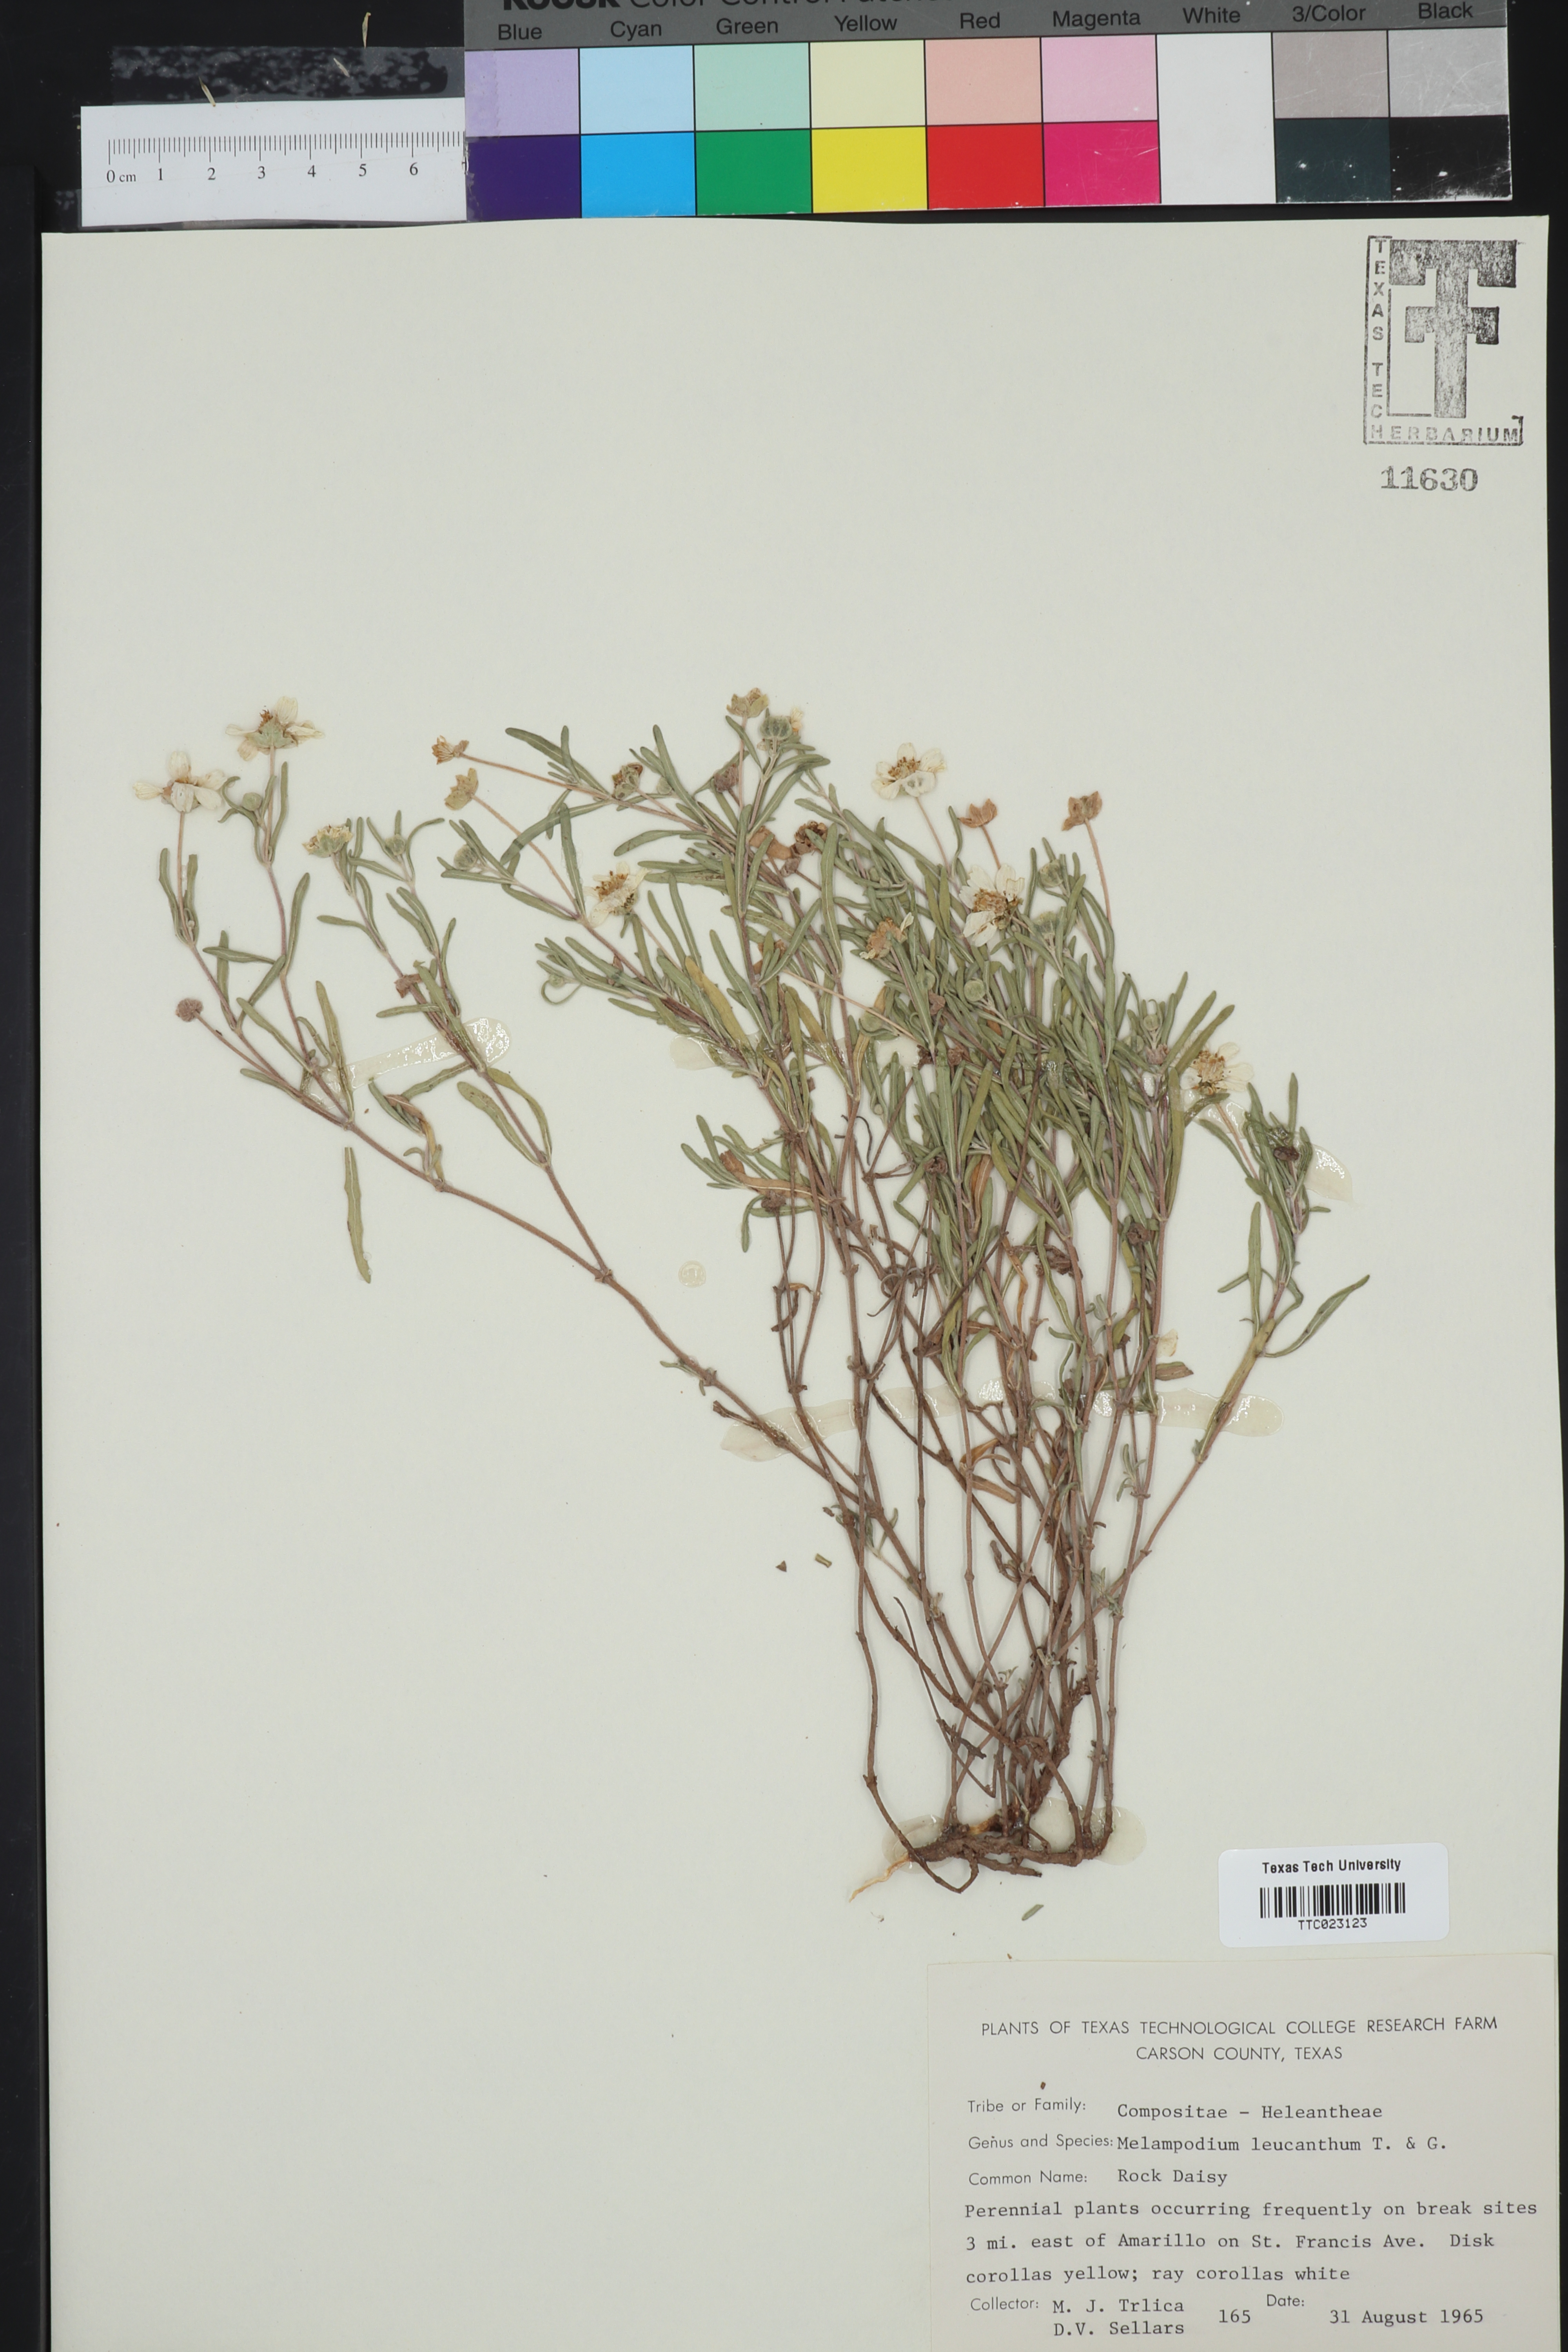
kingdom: Plantae
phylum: Tracheophyta
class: Magnoliopsida
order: Asterales
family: Asteraceae
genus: Melampodium
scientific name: Melampodium leucanthum
